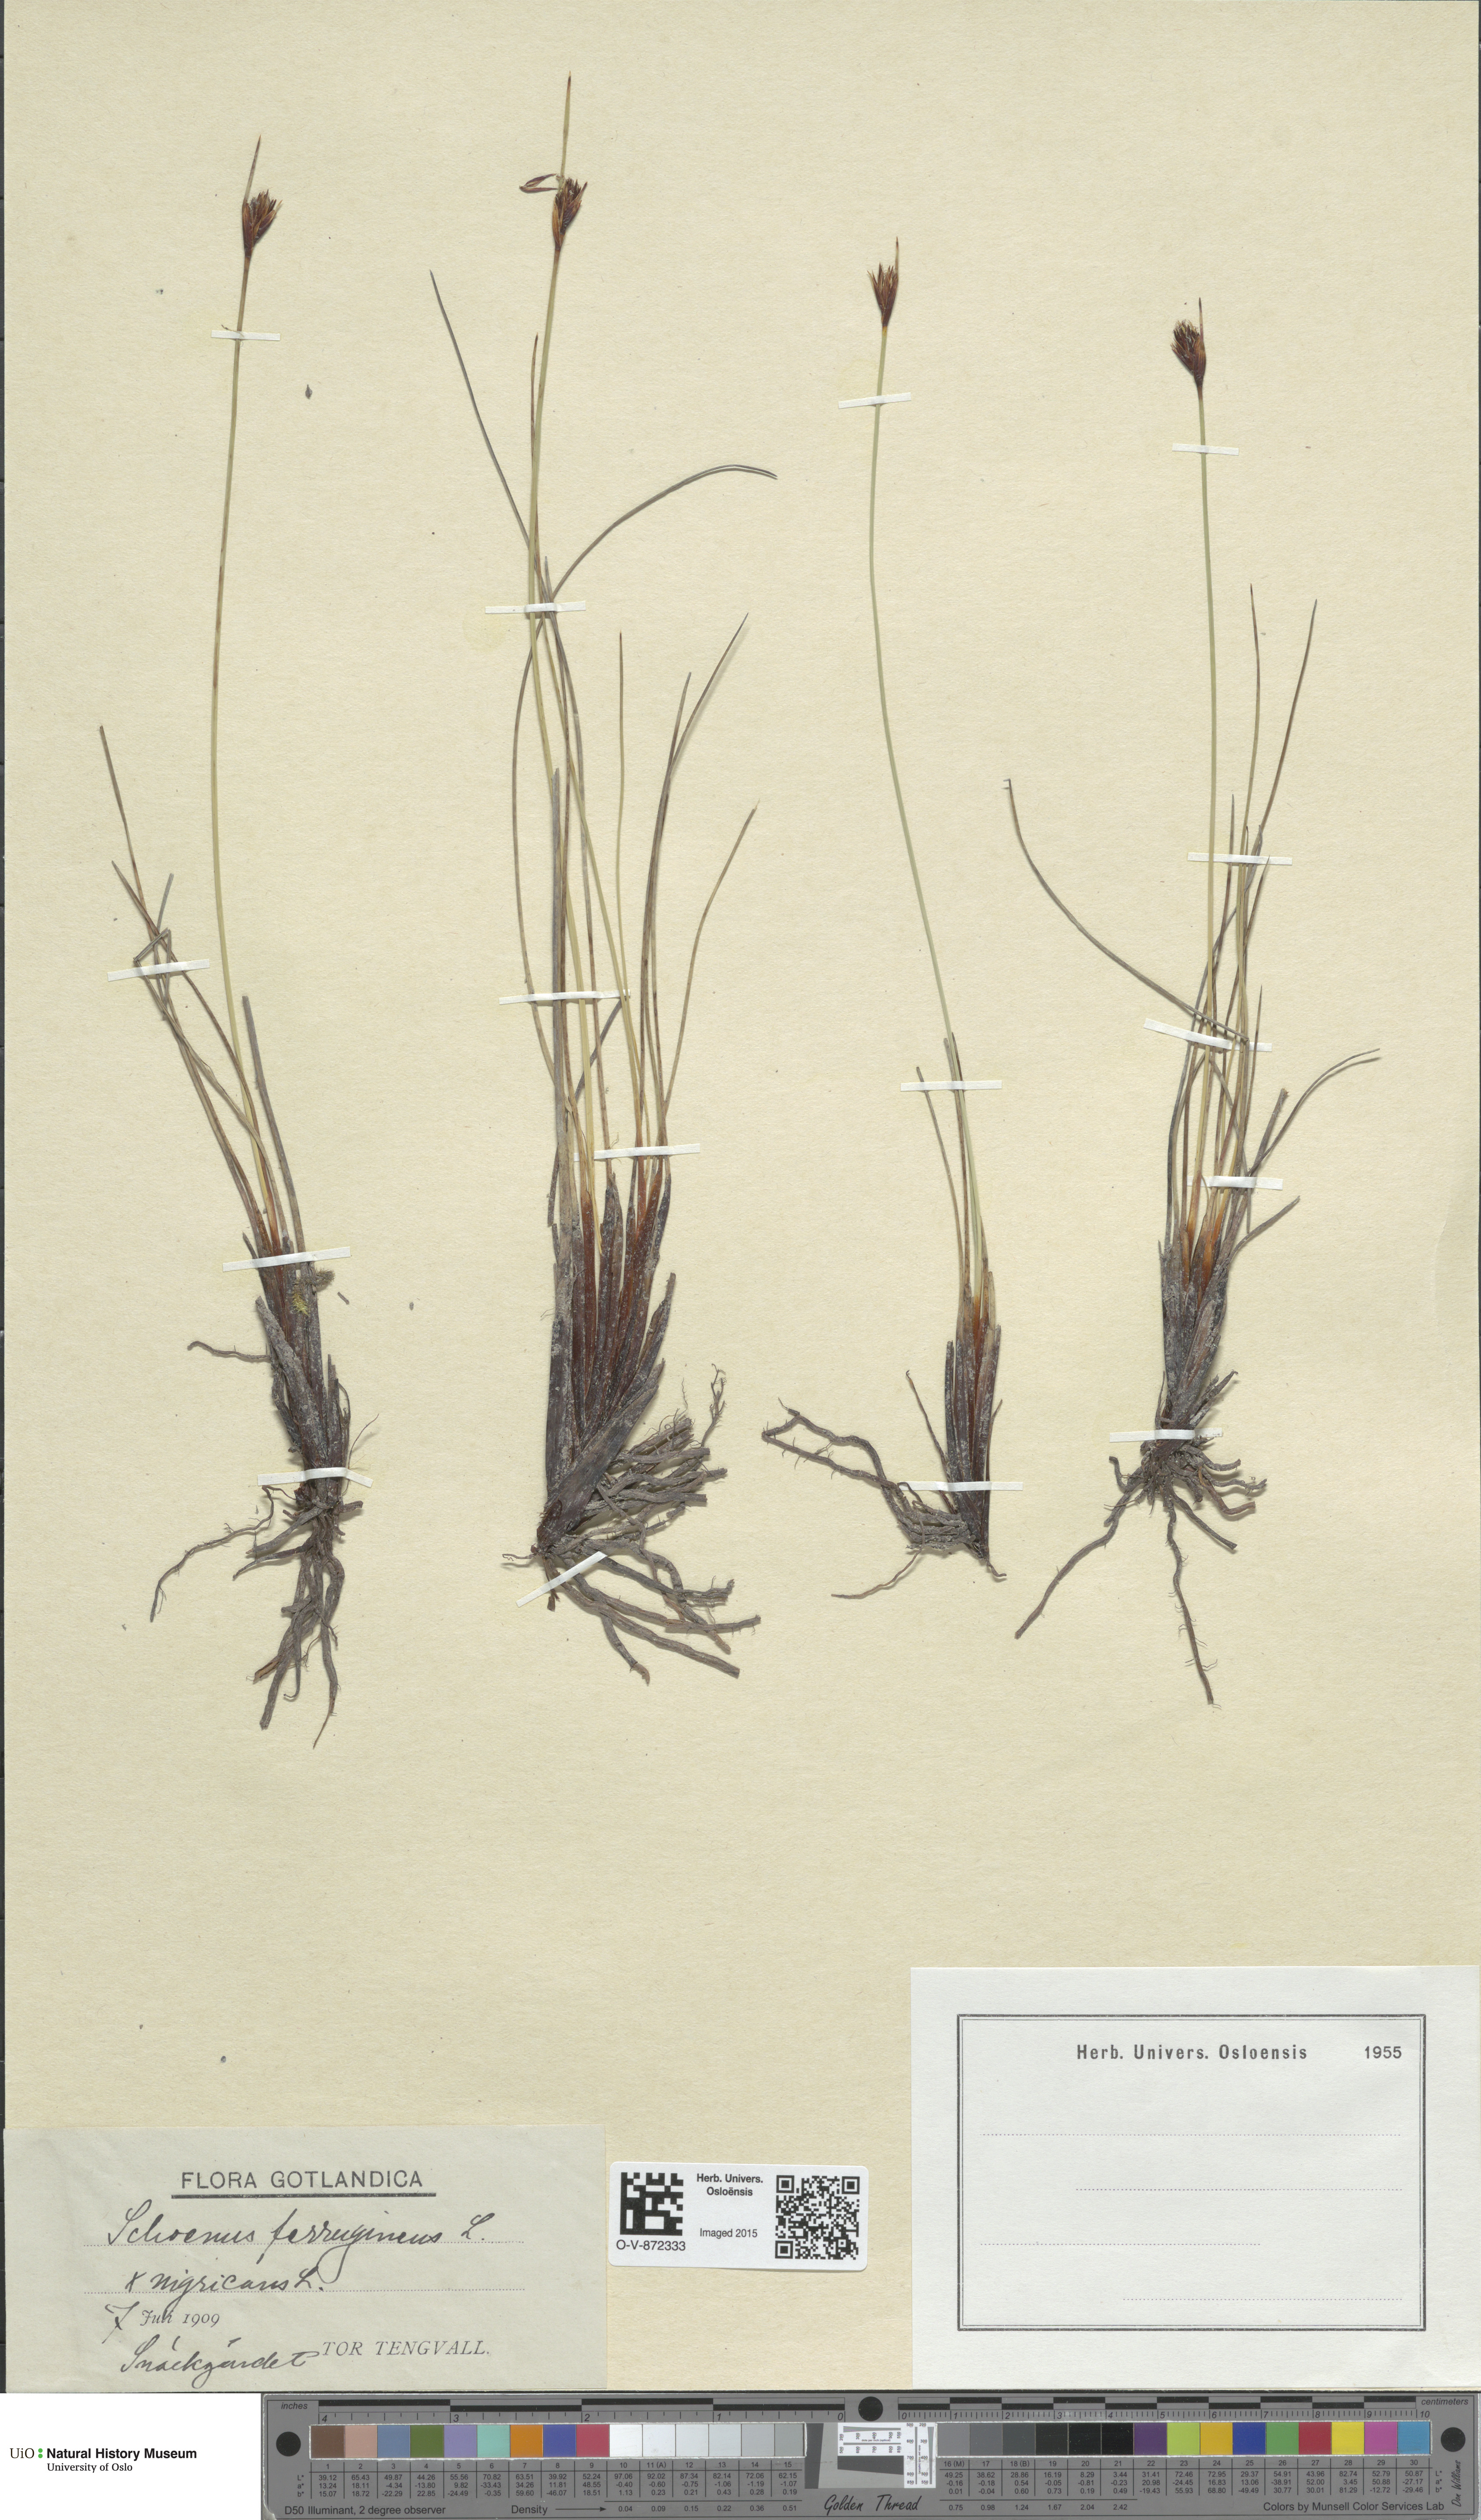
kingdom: Plantae
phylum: Tracheophyta
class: Liliopsida
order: Poales
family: Cyperaceae
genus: Schoenus
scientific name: Schoenus
